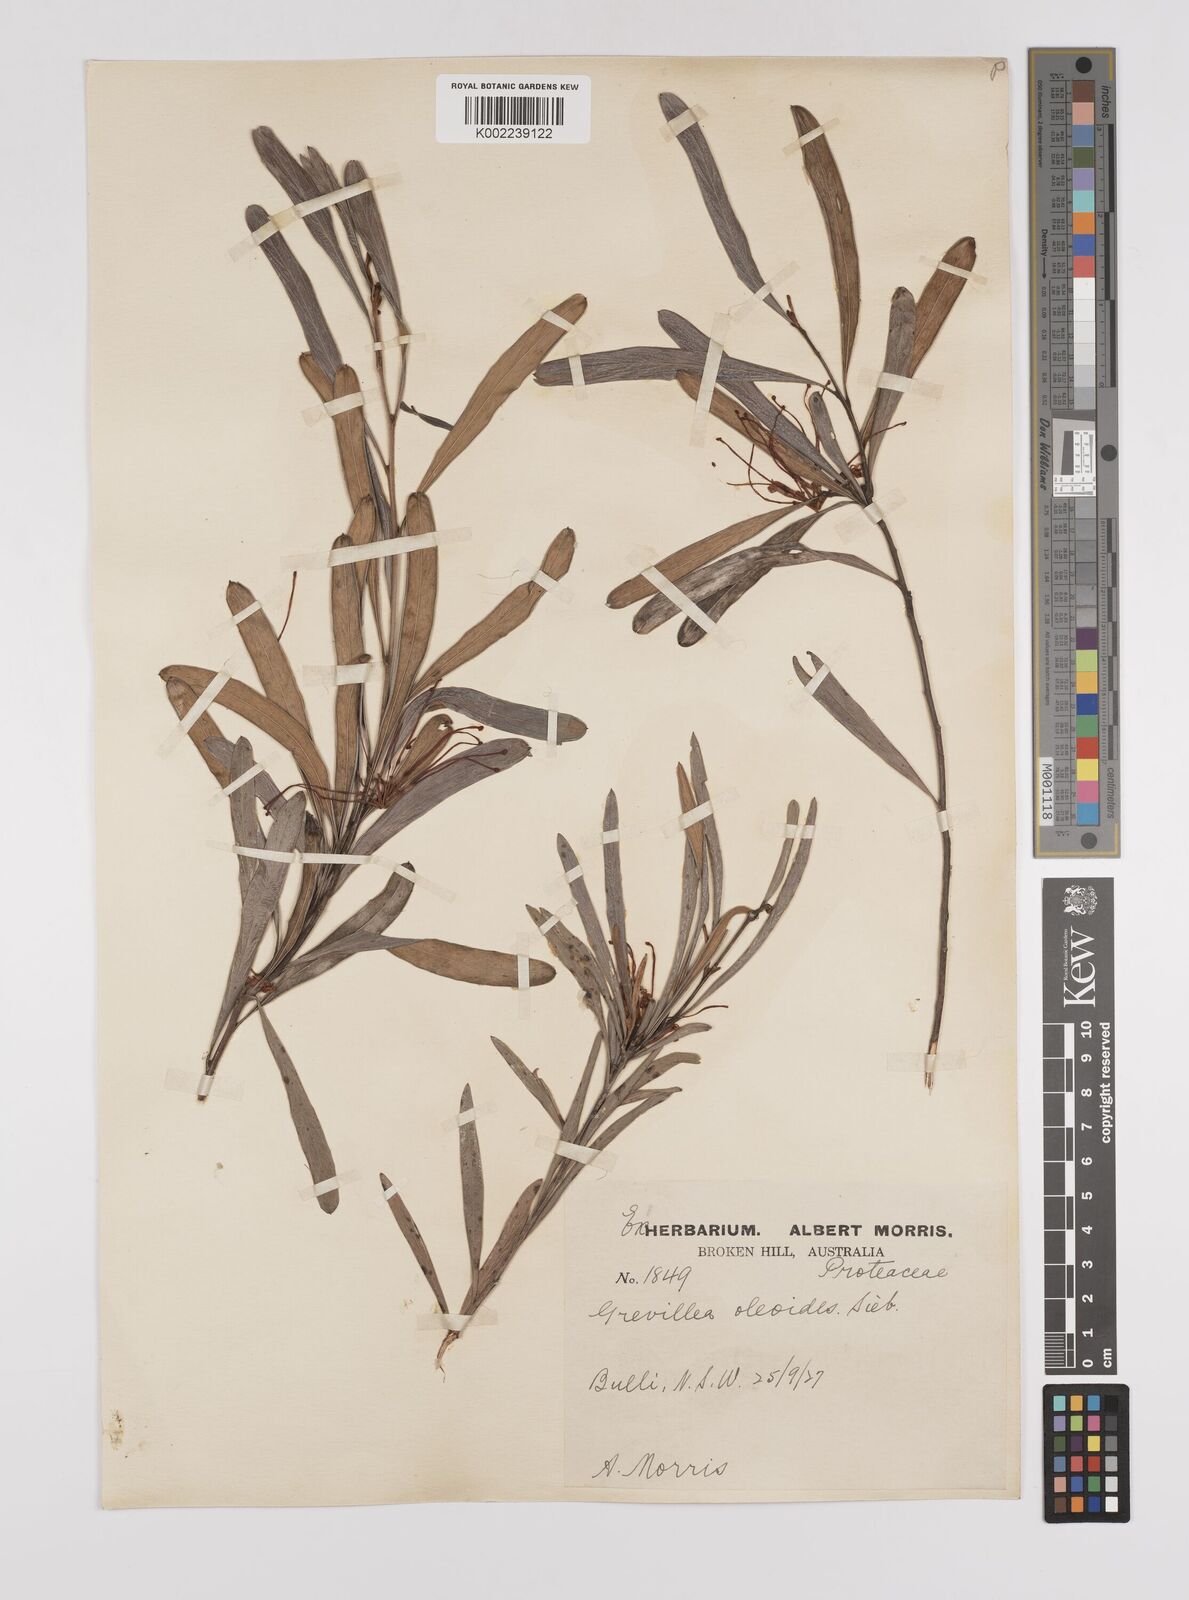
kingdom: Plantae
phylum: Tracheophyta
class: Magnoliopsida
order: Proteales
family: Proteaceae
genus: Grevillea
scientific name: Grevillea oleoides
